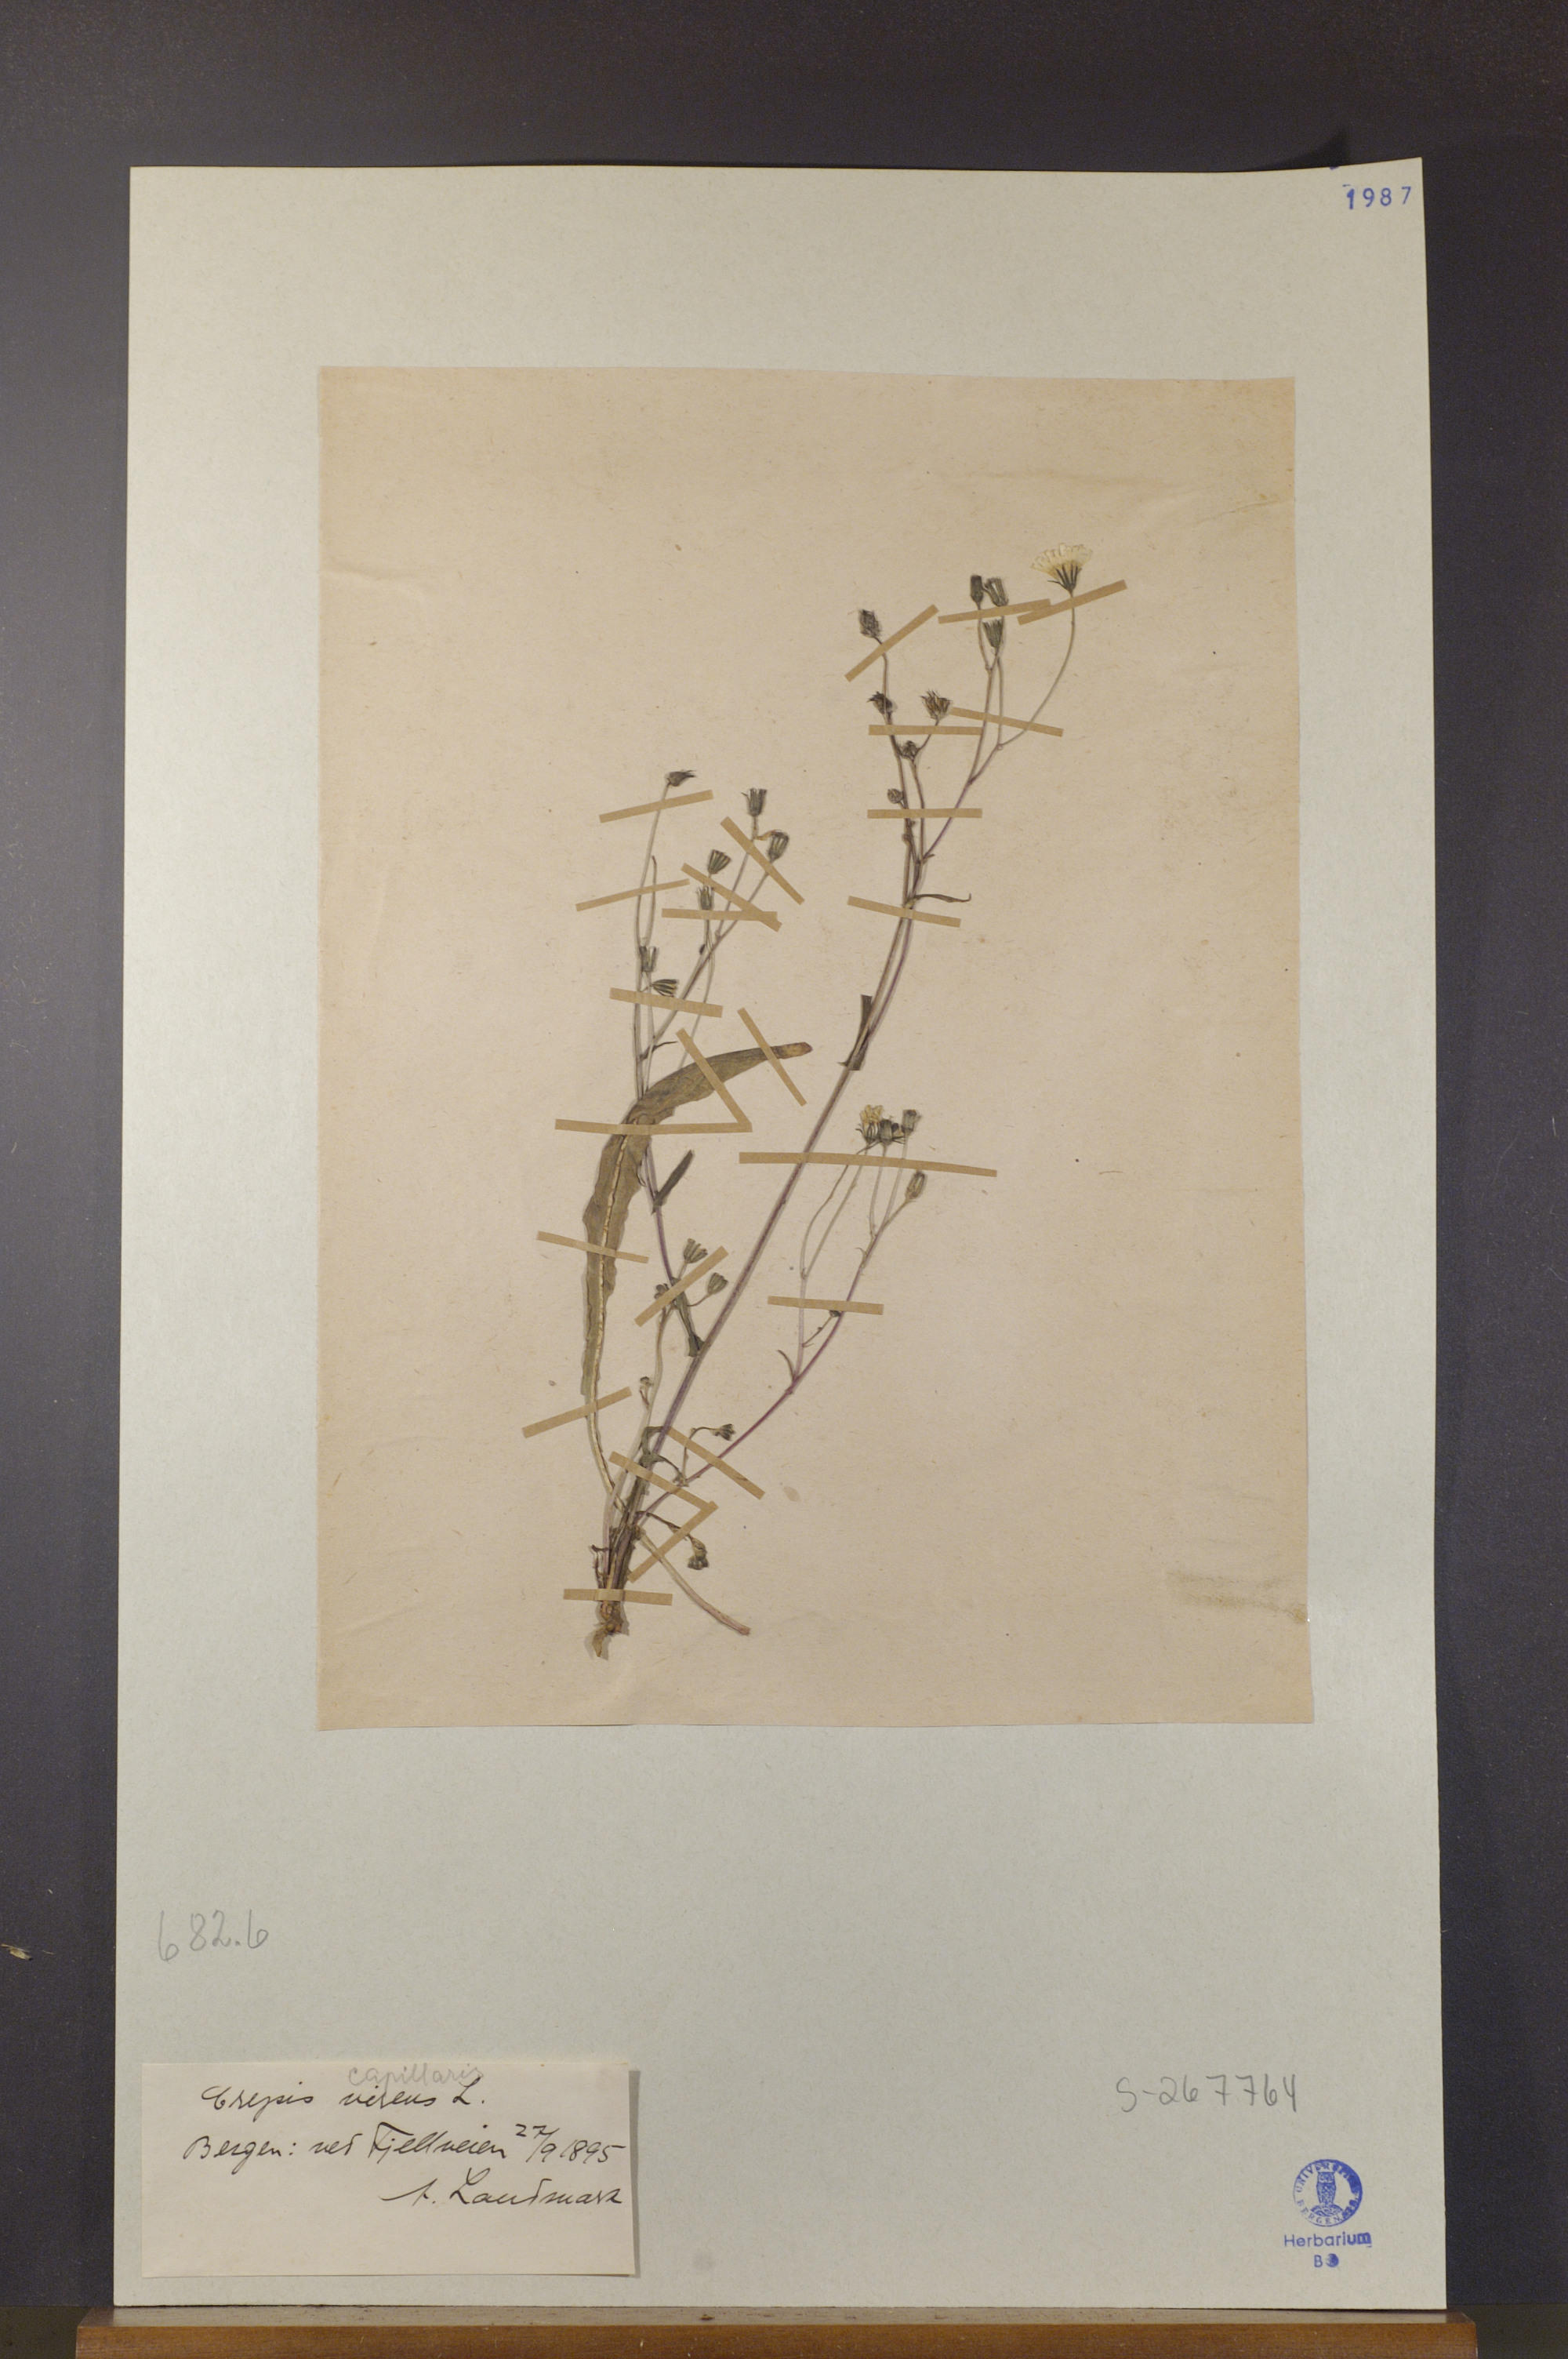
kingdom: Plantae
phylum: Tracheophyta
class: Magnoliopsida
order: Asterales
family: Asteraceae
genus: Crepis
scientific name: Crepis capillaris
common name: Smooth hawksbeard
